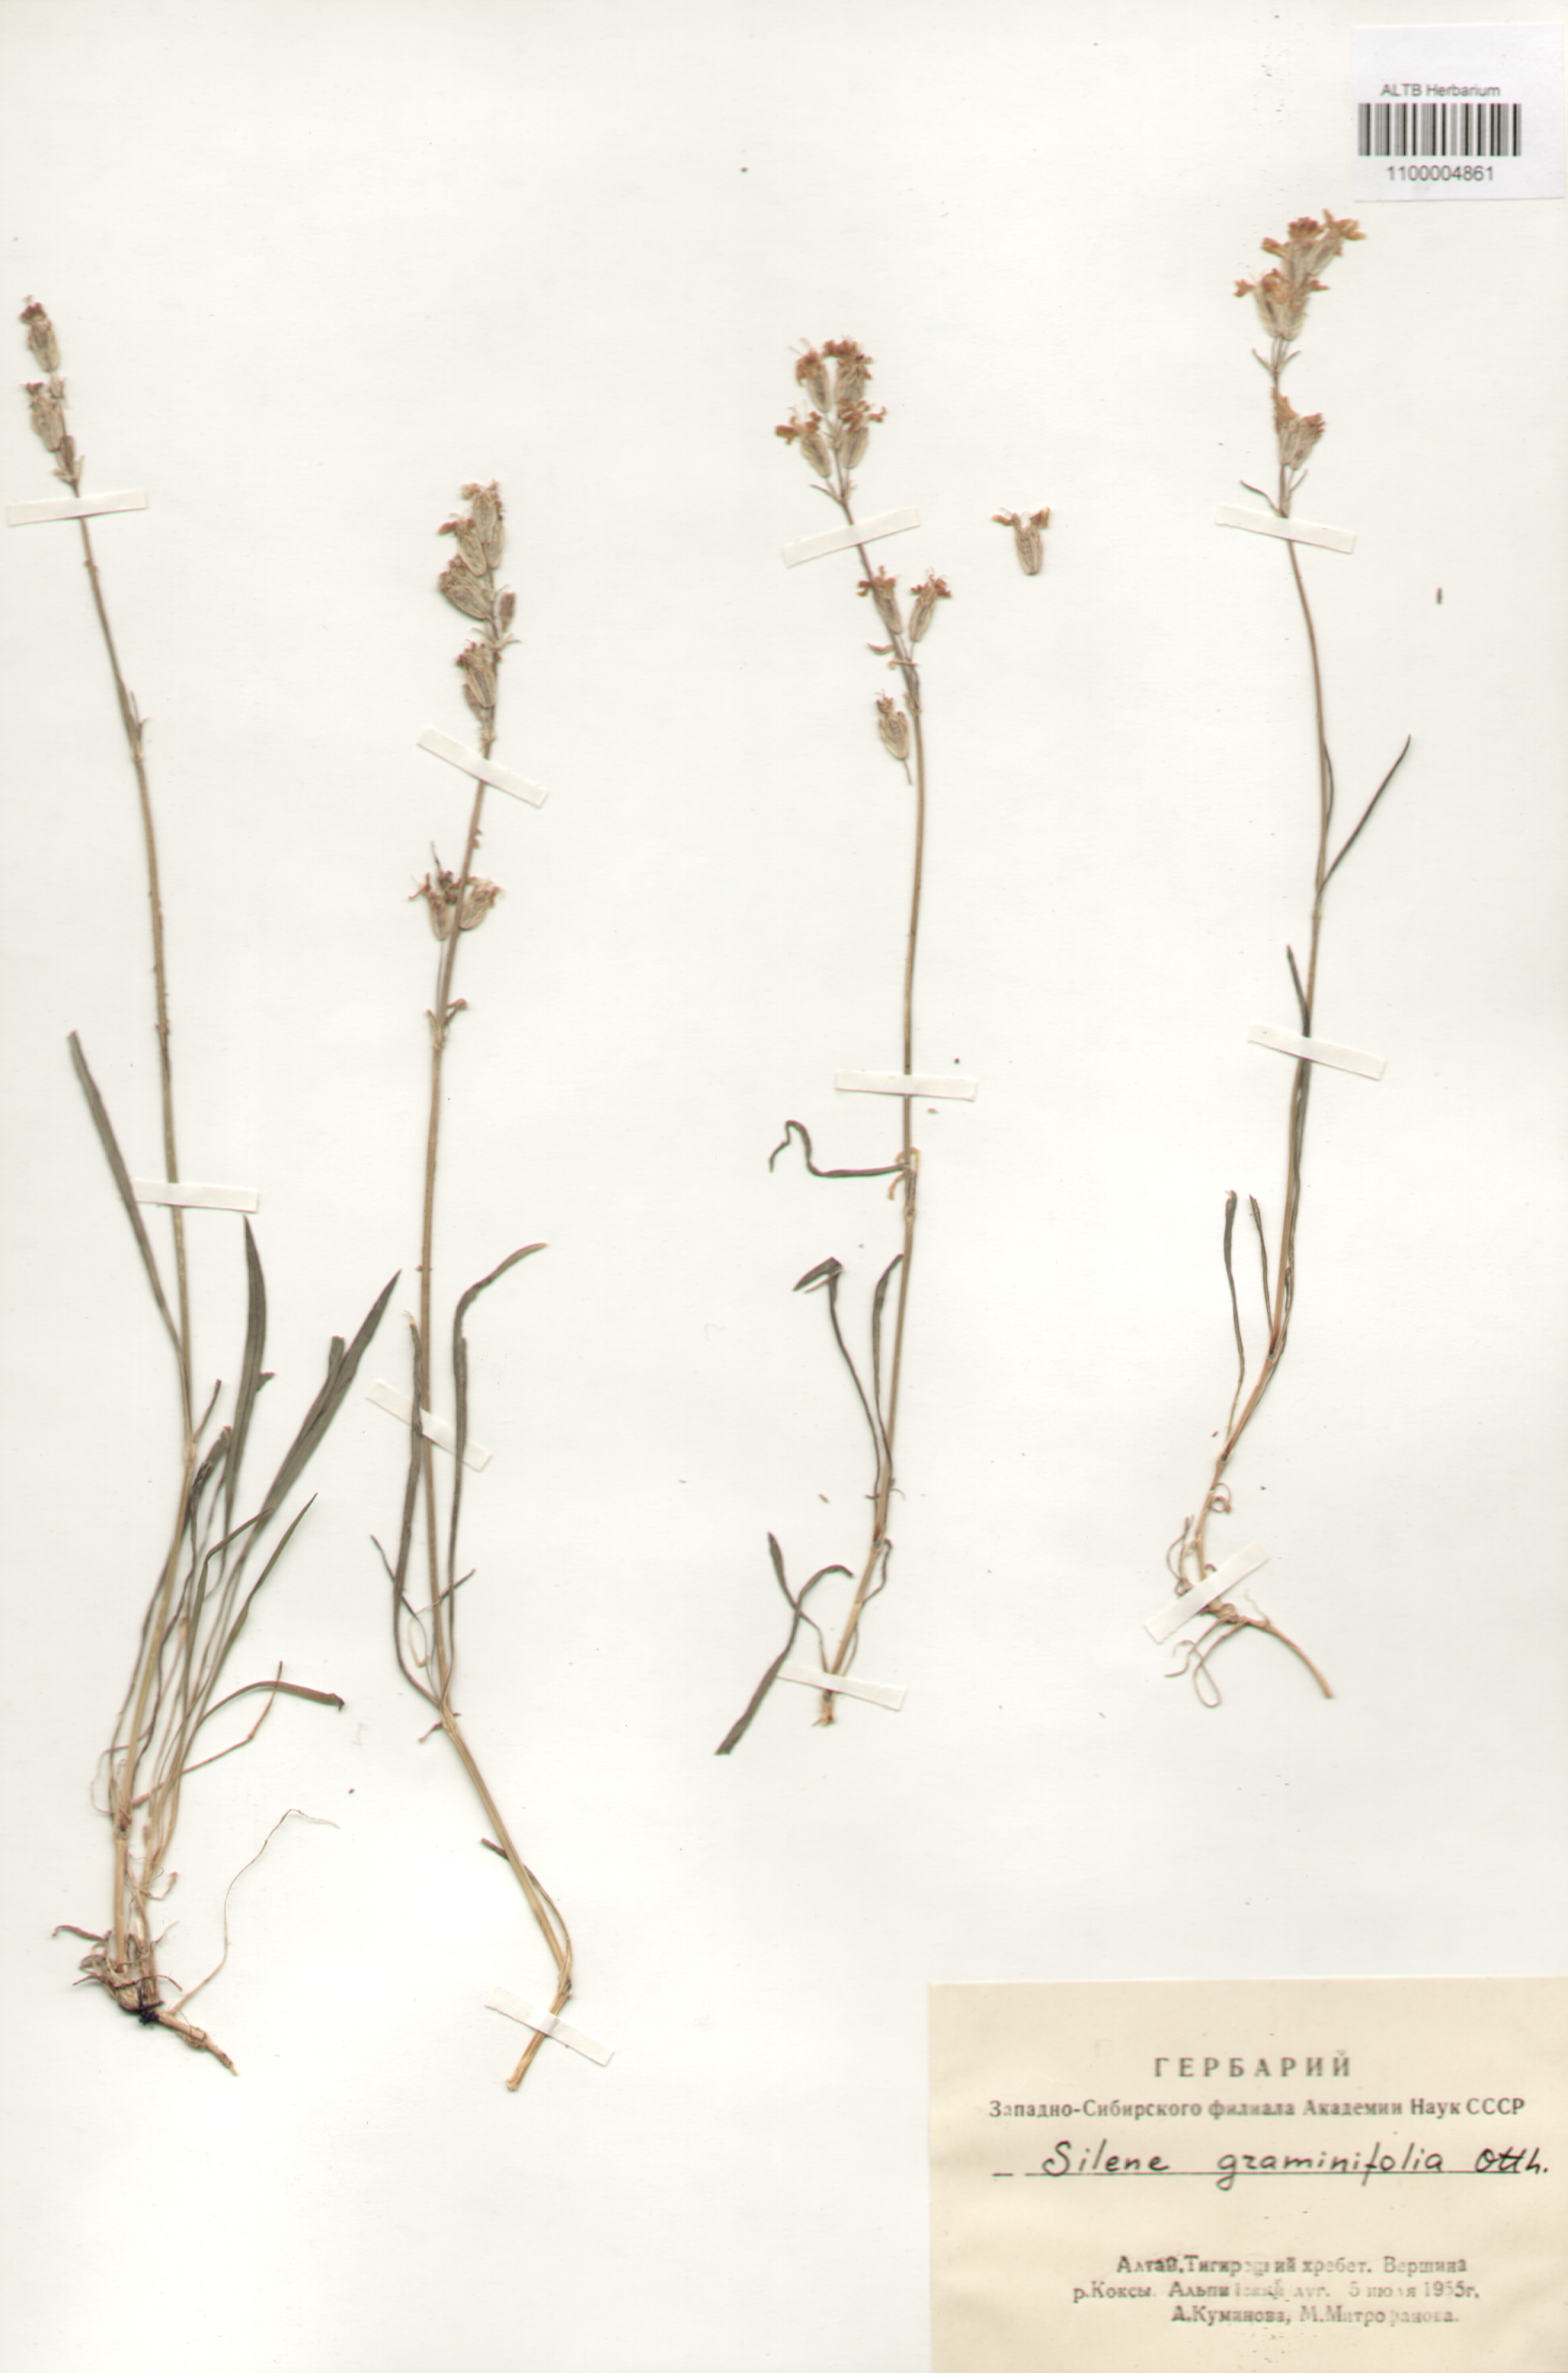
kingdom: Plantae
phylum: Tracheophyta
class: Magnoliopsida
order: Caryophyllales
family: Caryophyllaceae
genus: Silene
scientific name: Silene graminifolia
